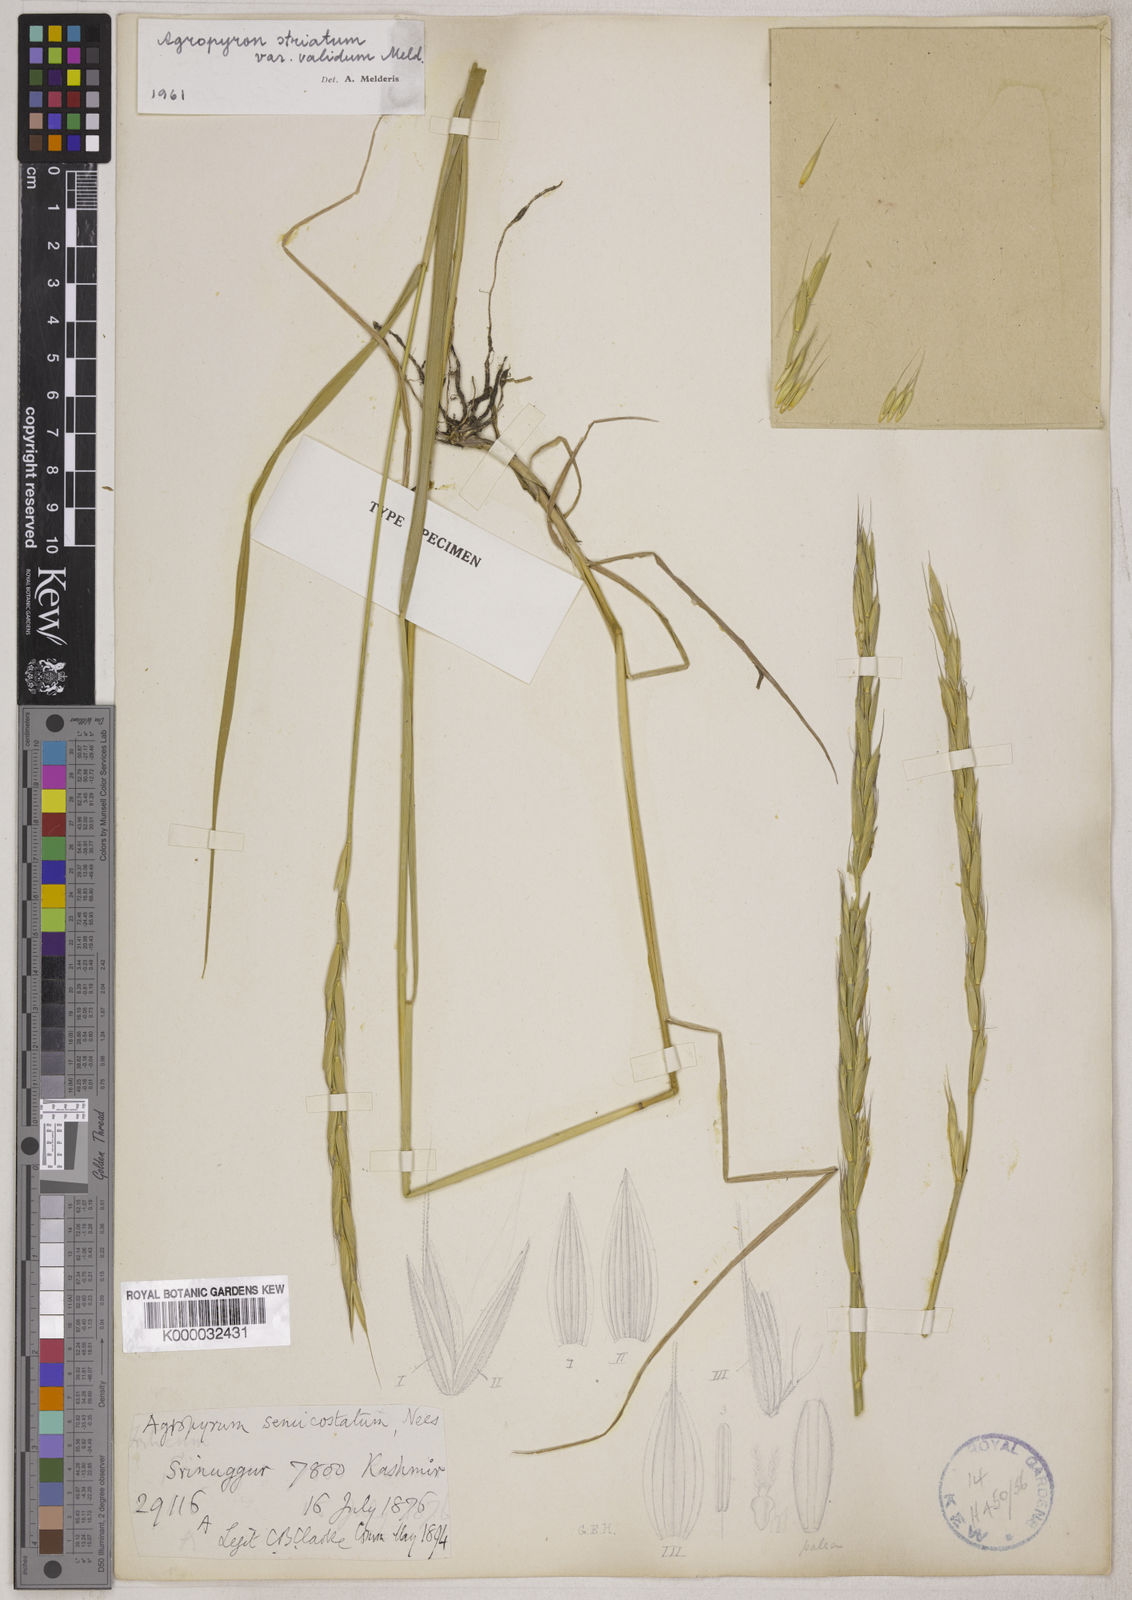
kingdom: Plantae
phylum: Tracheophyta
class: Liliopsida
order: Poales
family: Poaceae
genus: Elymus
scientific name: Elymus semicostatus
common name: Drooping wildrye
